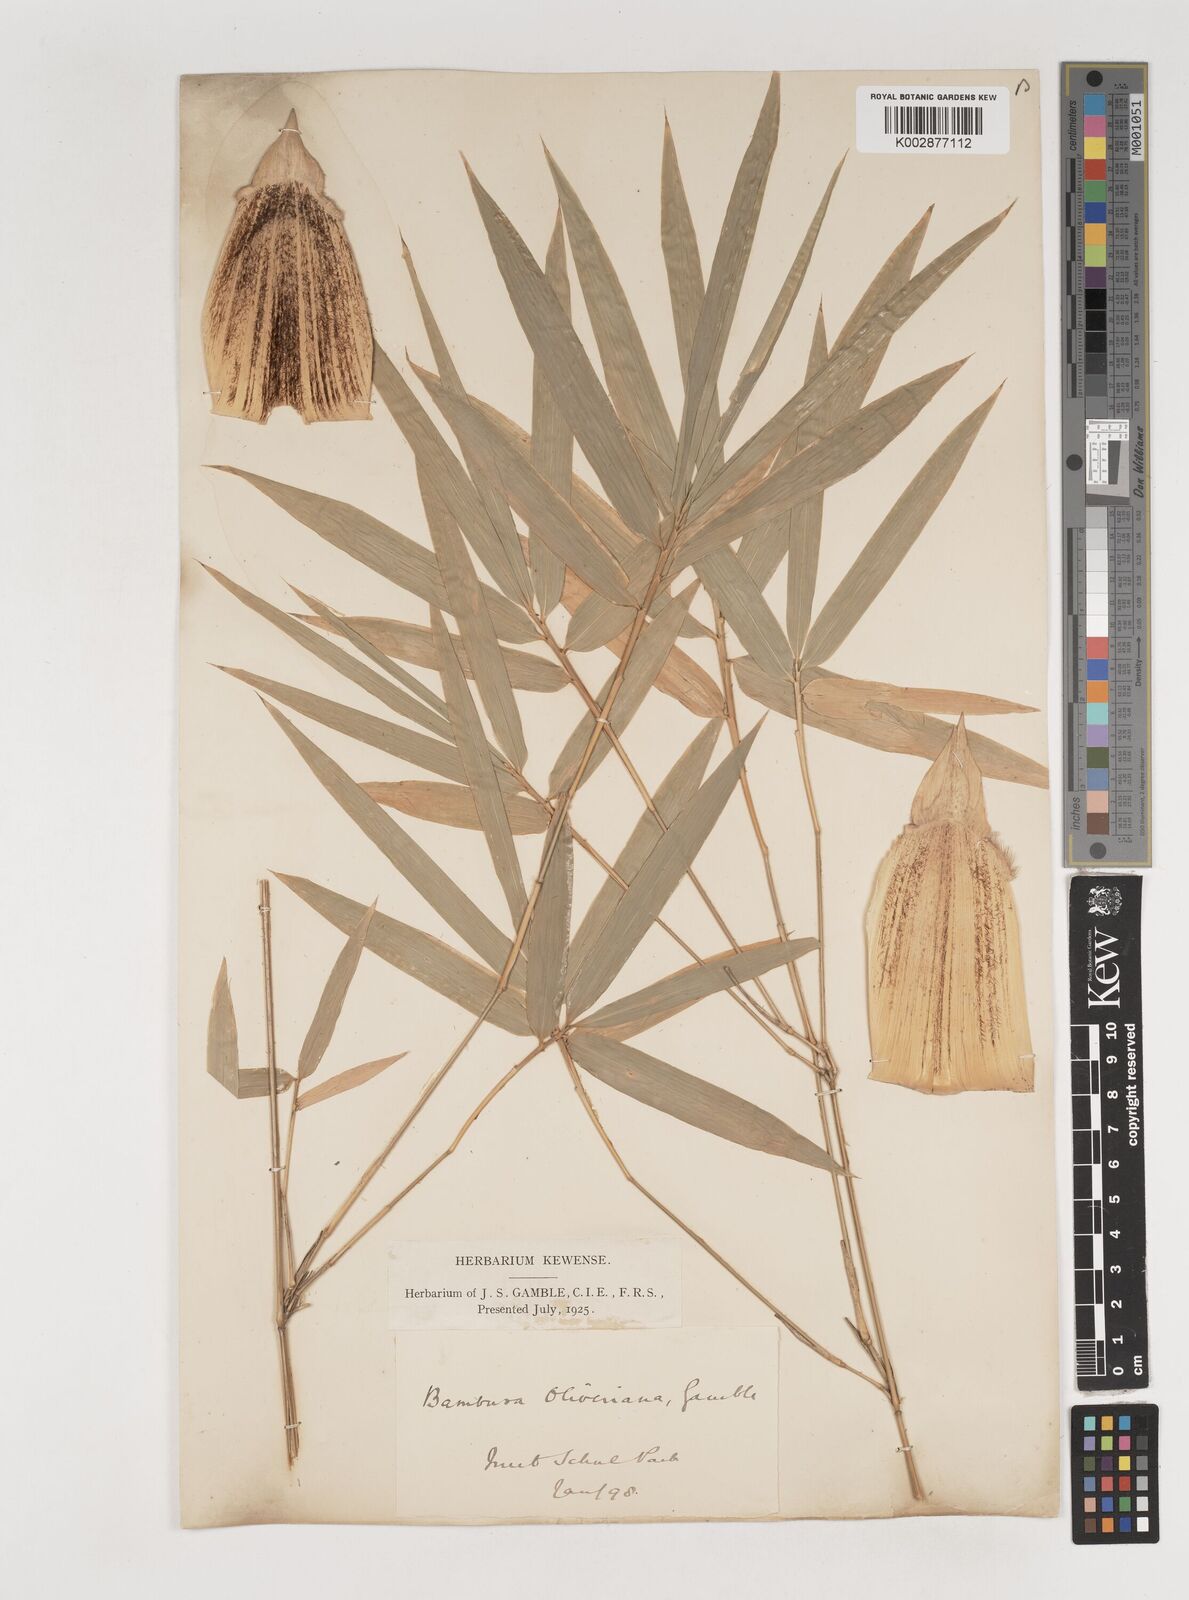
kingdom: Plantae
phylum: Tracheophyta
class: Liliopsida
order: Poales
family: Poaceae
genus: Bambusa
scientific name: Bambusa
